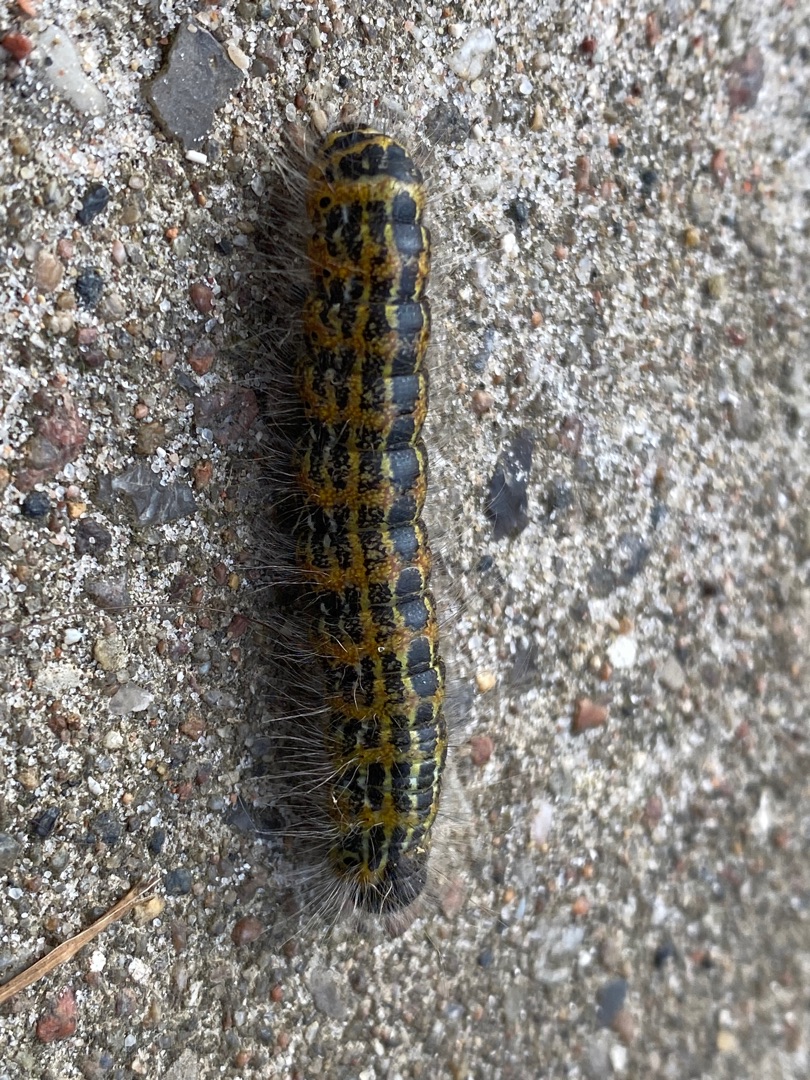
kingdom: Animalia
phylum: Arthropoda
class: Insecta
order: Lepidoptera
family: Notodontidae
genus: Phalera
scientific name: Phalera bucephala
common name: Måneplet
